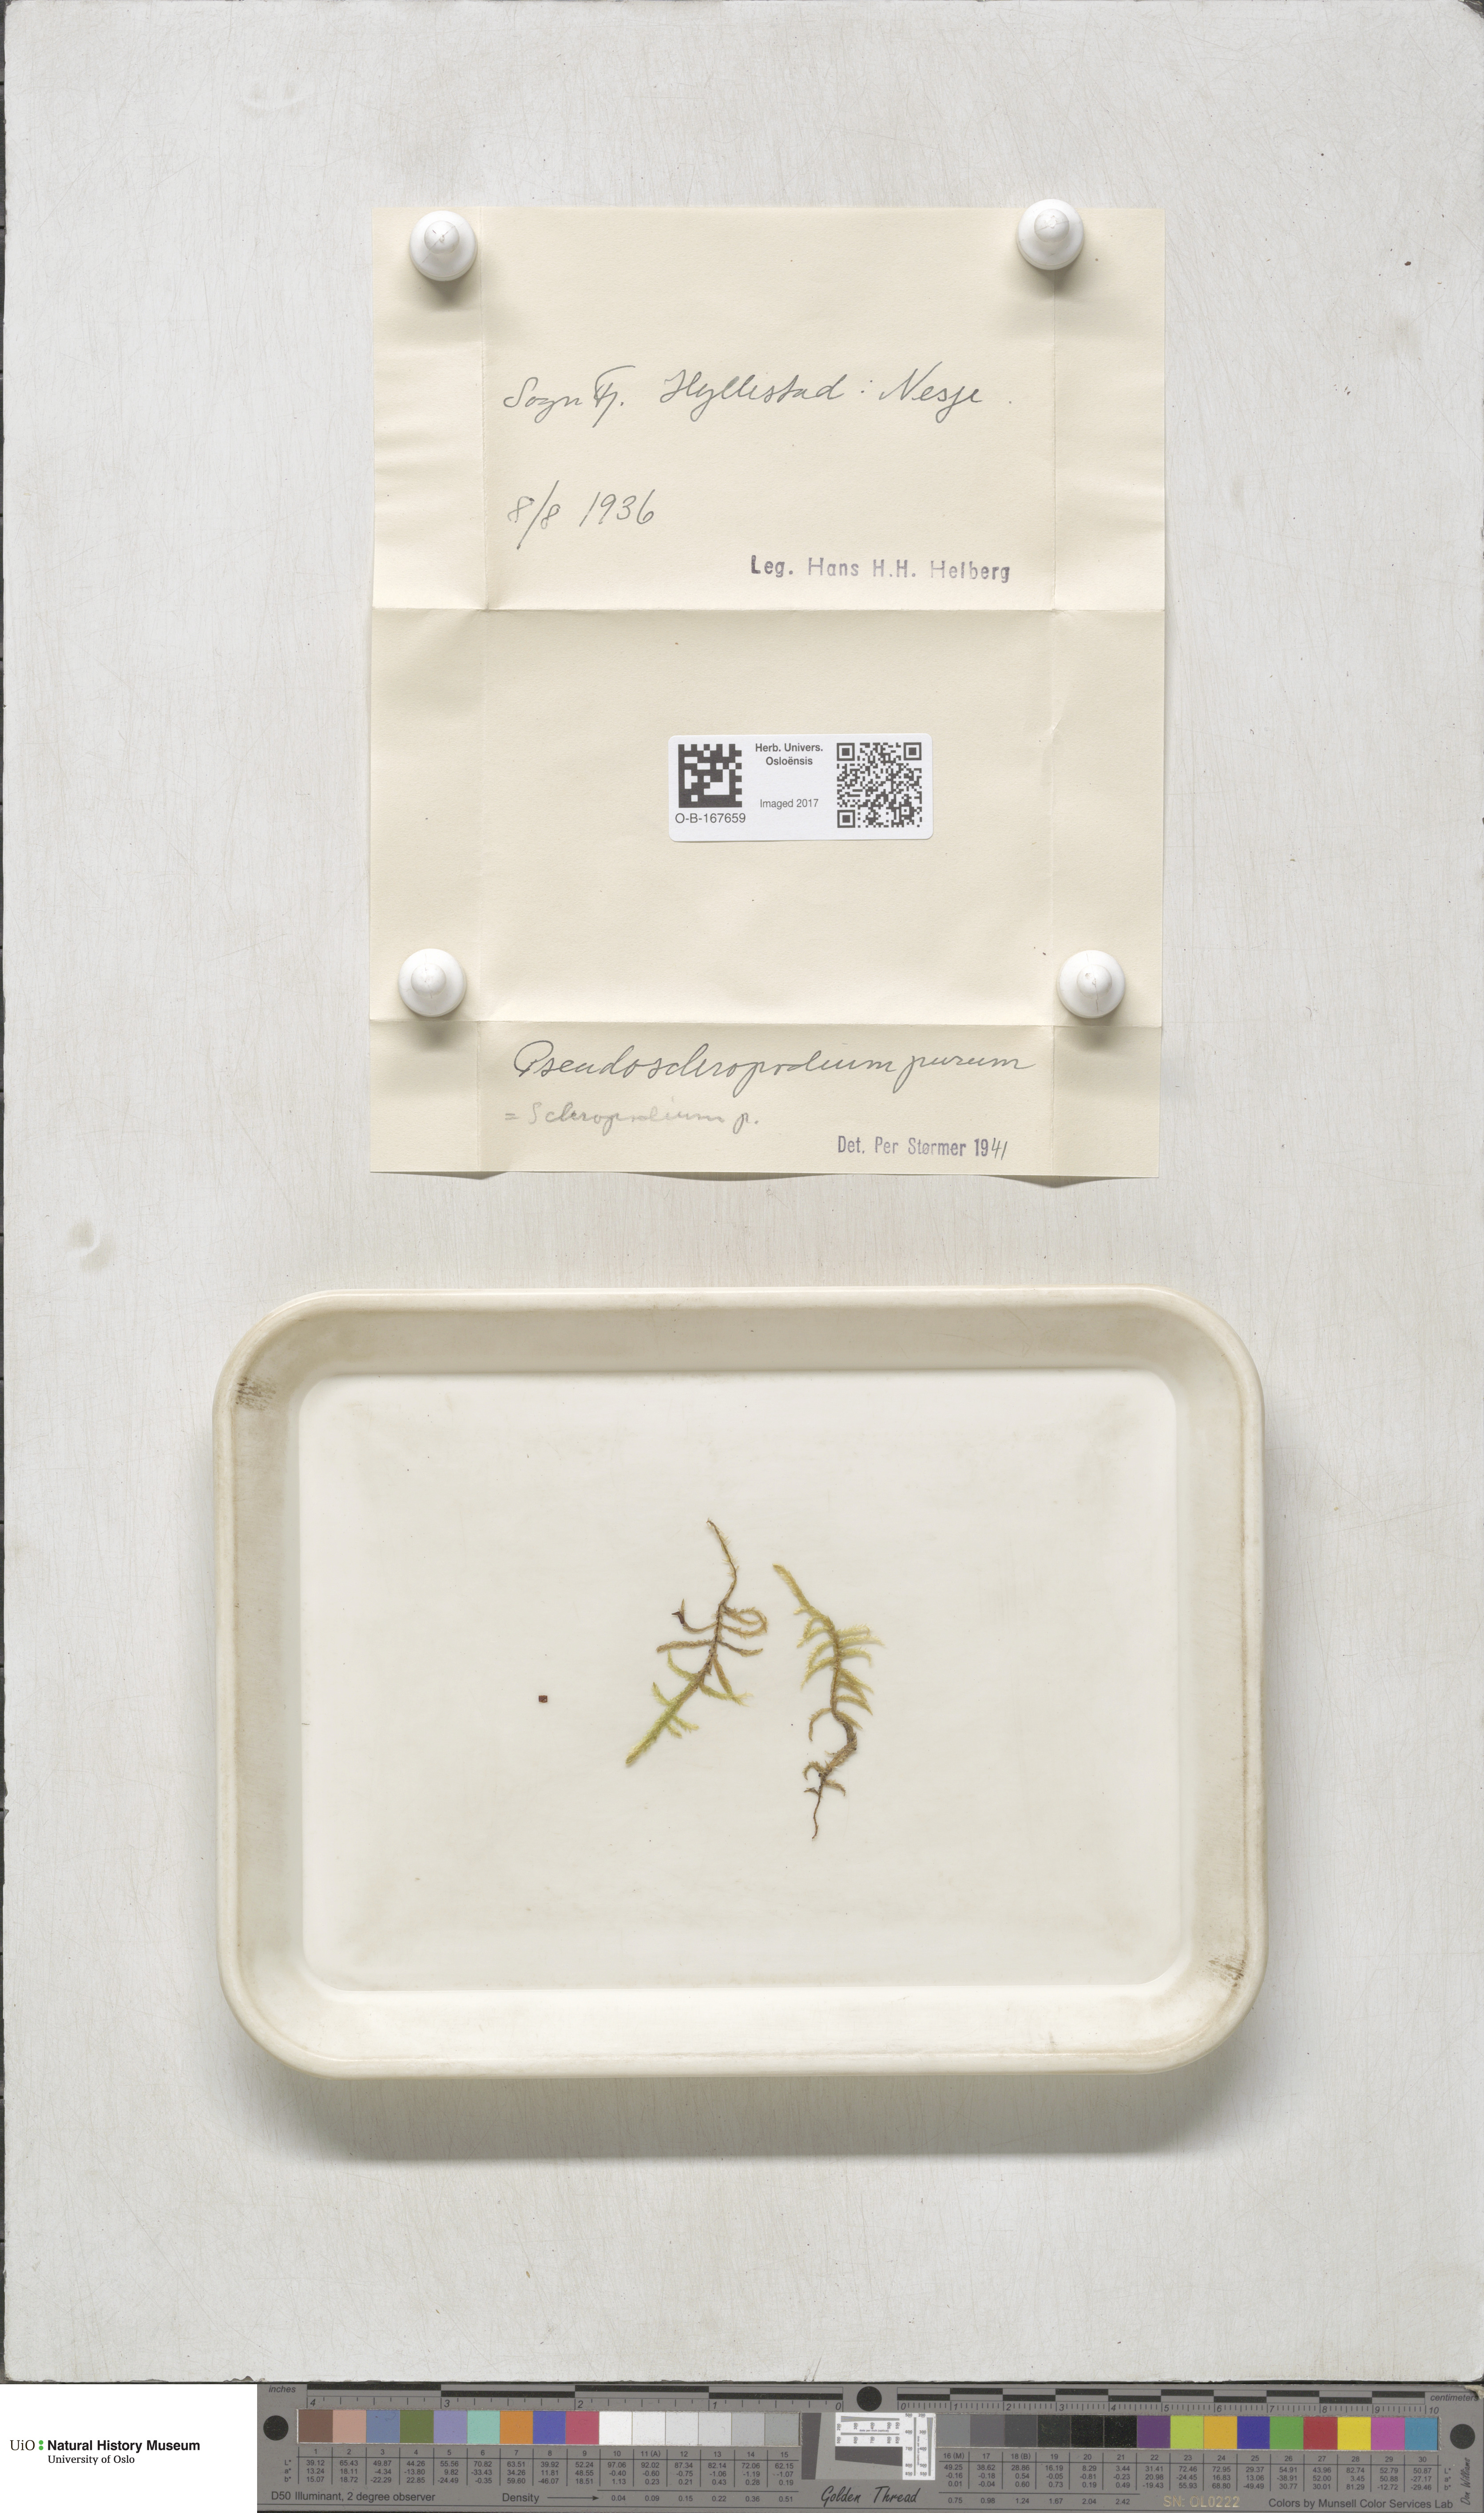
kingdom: Plantae
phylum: Bryophyta
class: Bryopsida
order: Hypnales
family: Brachytheciaceae
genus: Pseudoscleropodium
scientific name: Pseudoscleropodium purum
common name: Neat feather-moss
